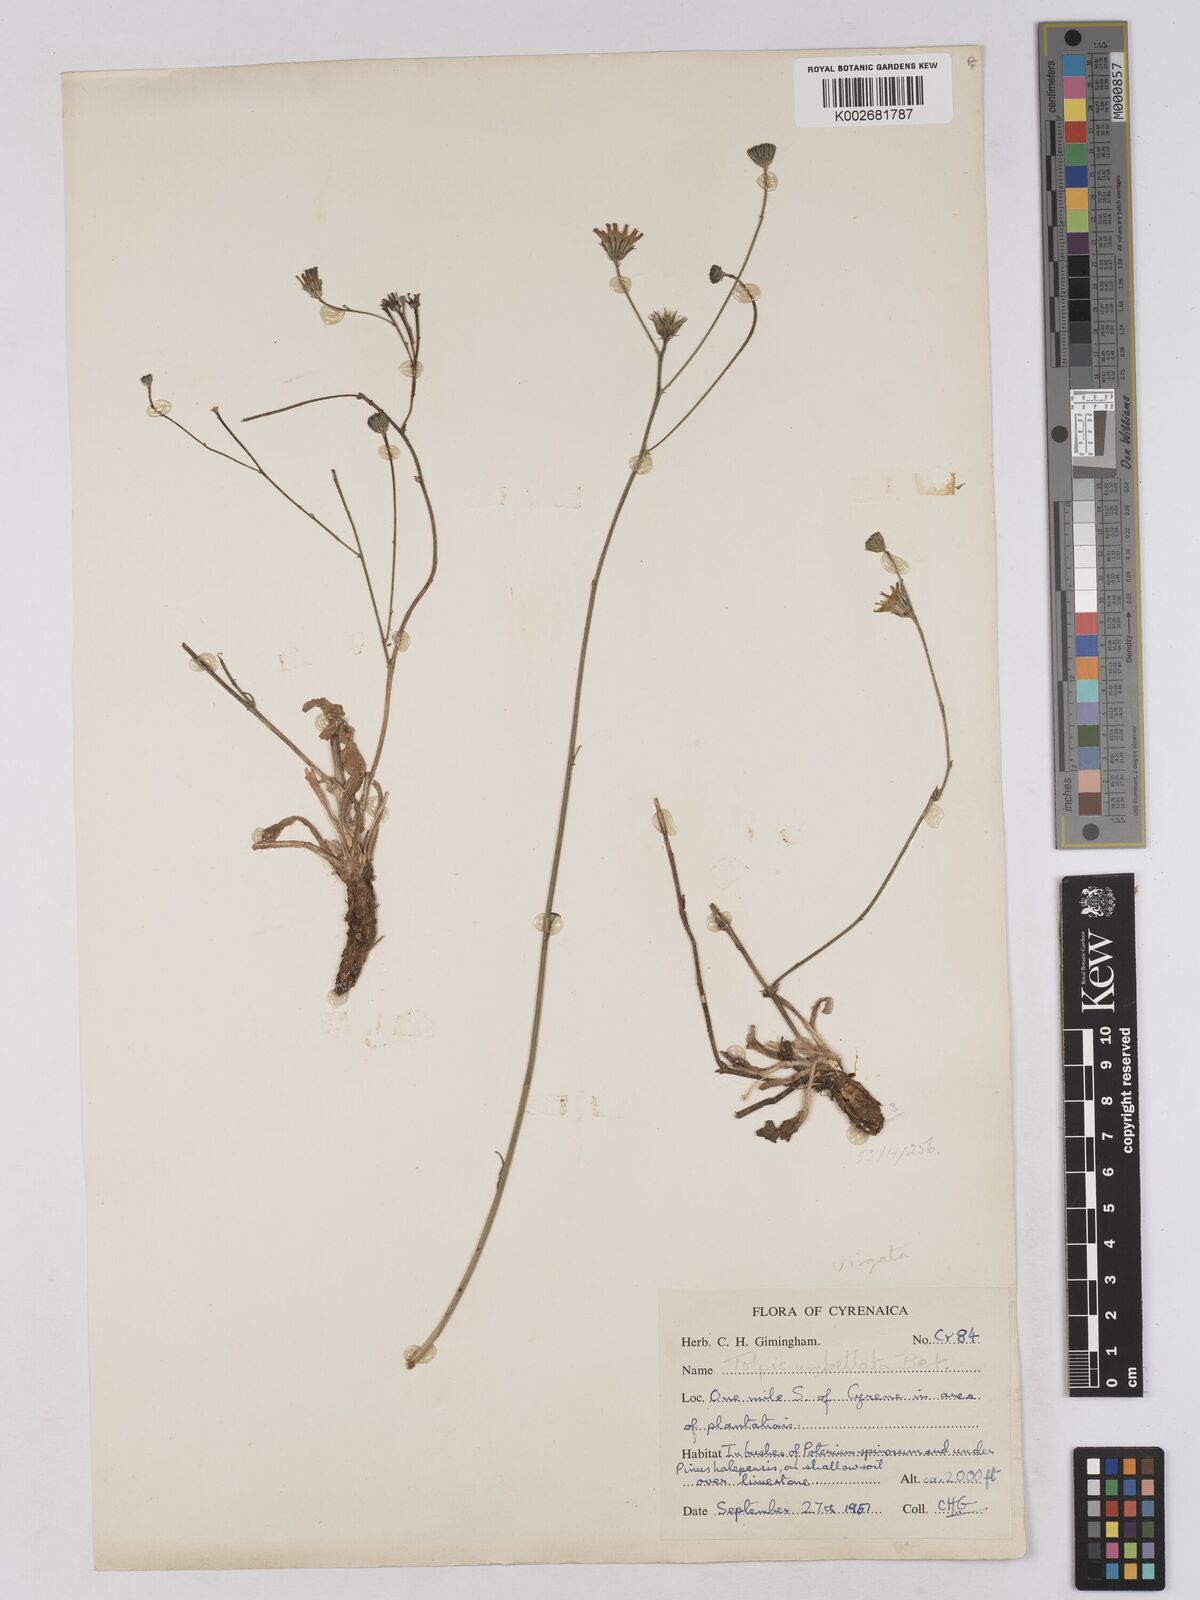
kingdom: Plantae
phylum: Tracheophyta
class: Magnoliopsida
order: Asterales
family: Asteraceae
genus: Tolpis
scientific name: Tolpis umbellata
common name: Yellow hawkweed
